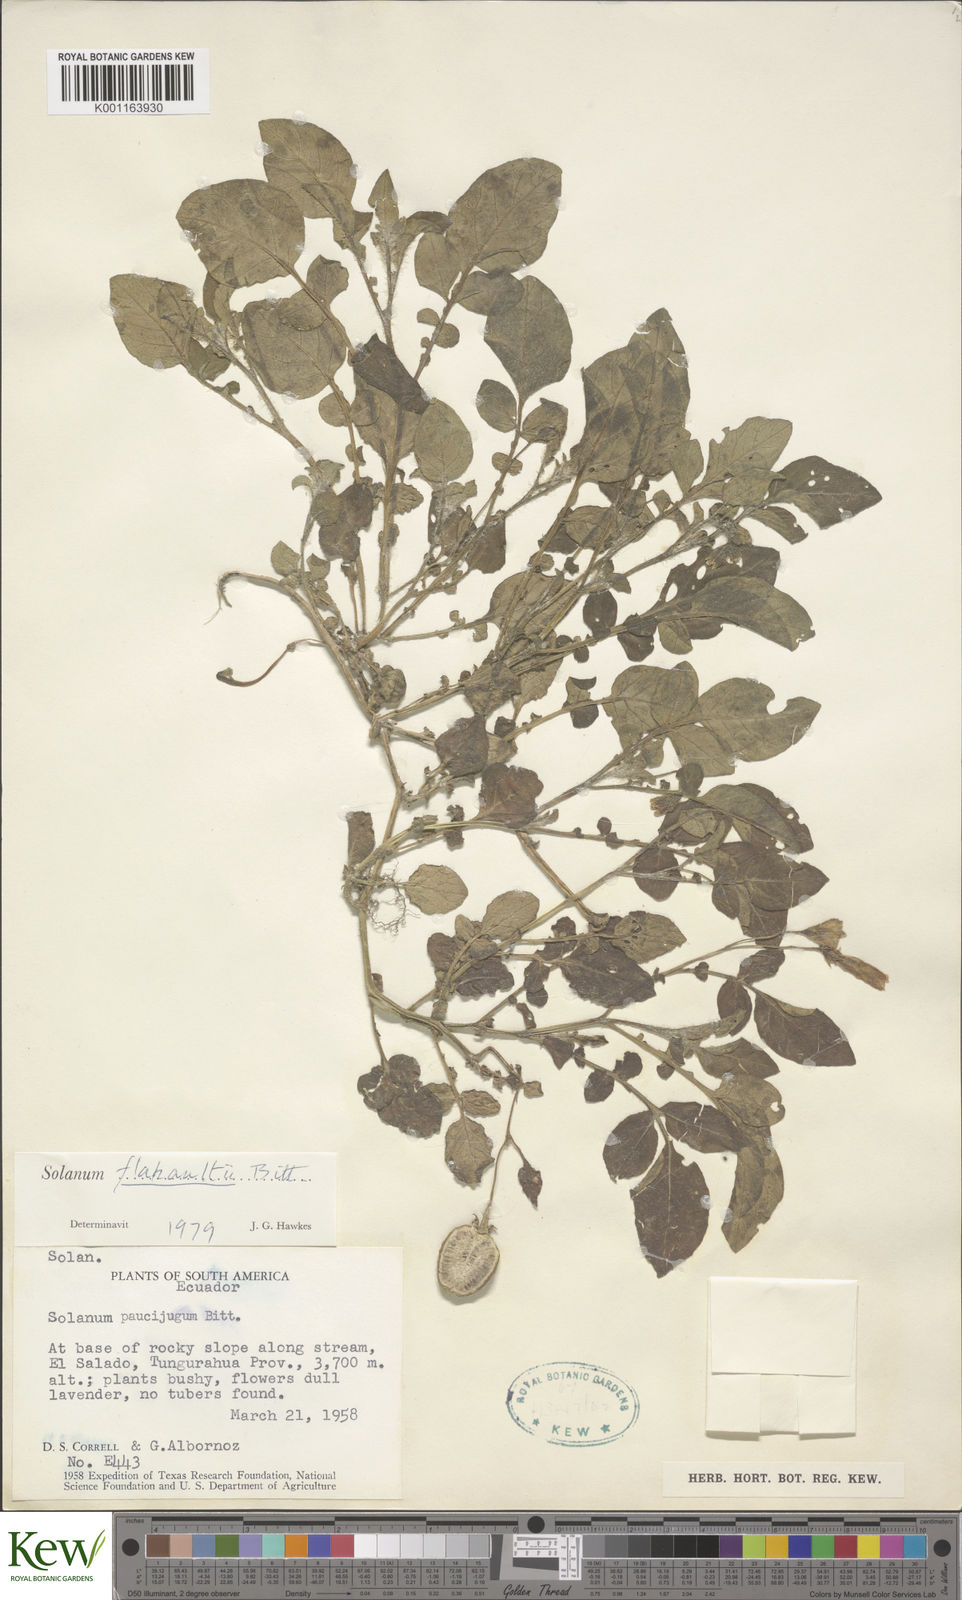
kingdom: Plantae
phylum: Tracheophyta
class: Magnoliopsida
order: Solanales
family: Solanaceae
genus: Solanum
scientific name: Solanum flahaultii
